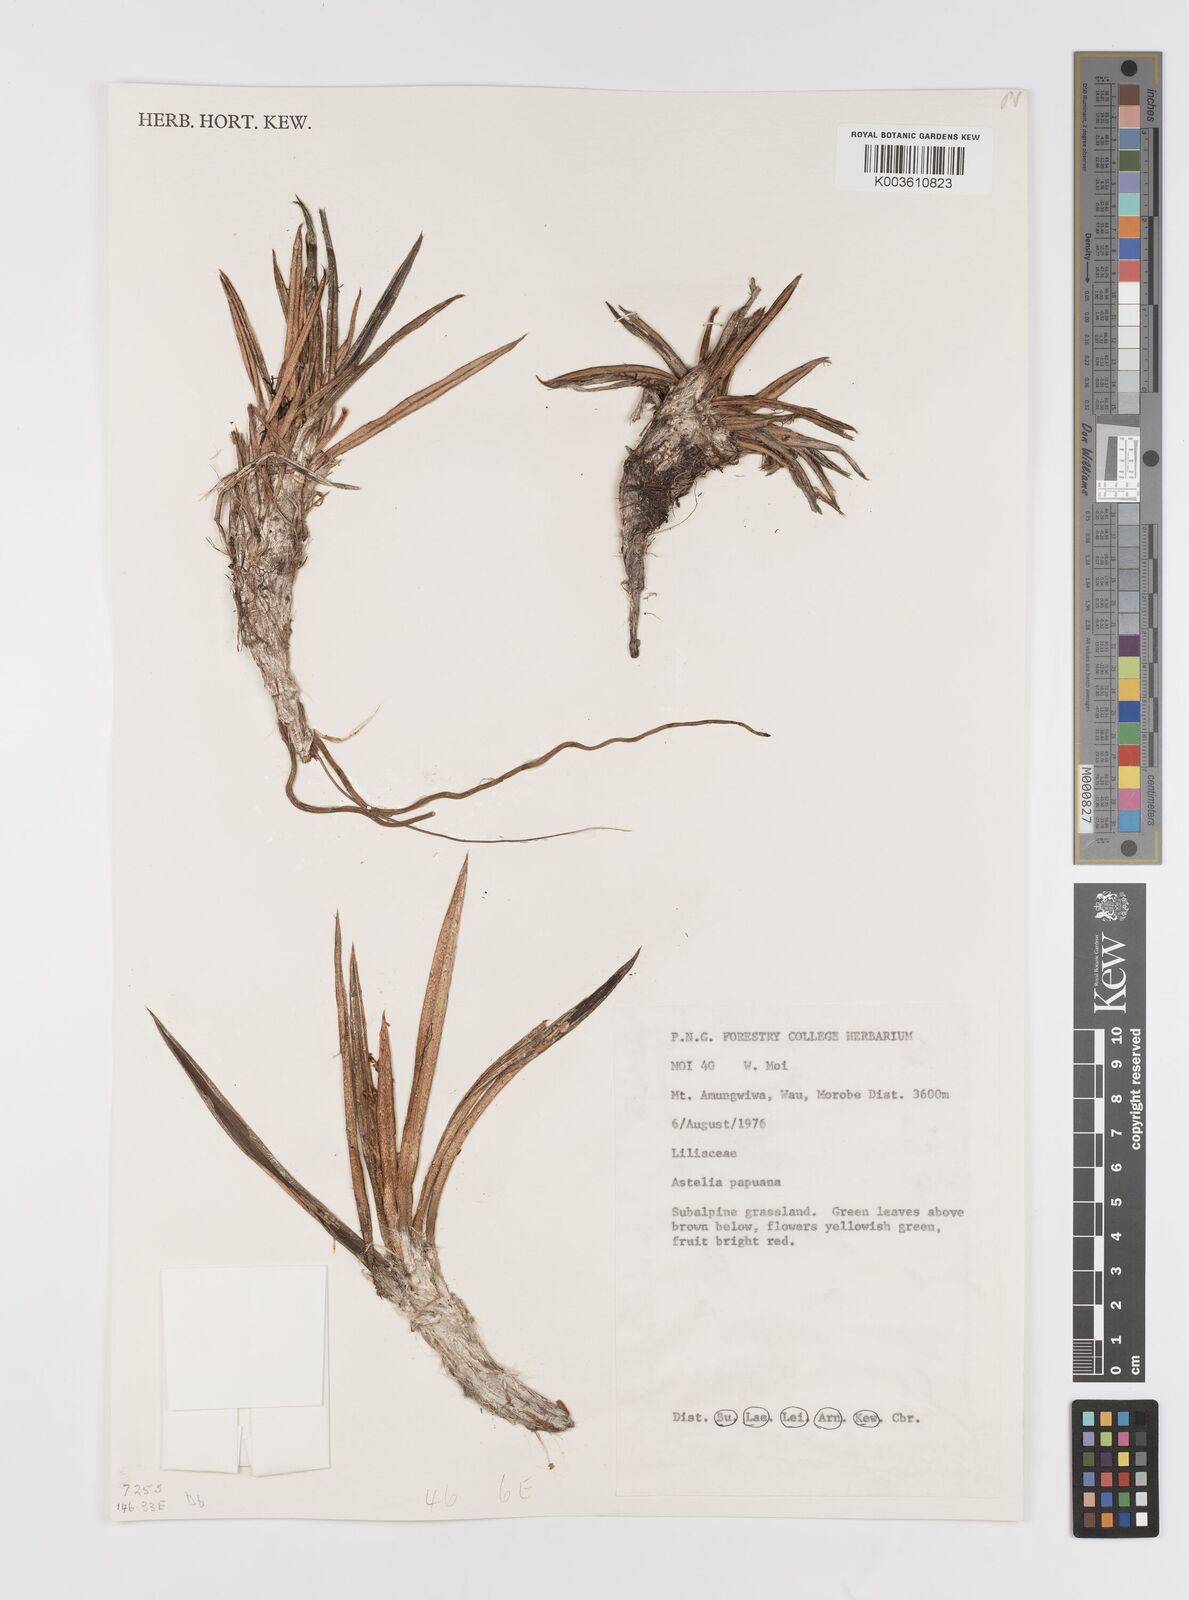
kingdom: Plantae
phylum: Tracheophyta
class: Liliopsida
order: Asparagales
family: Asteliaceae
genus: Astelia
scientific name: Astelia papuana
